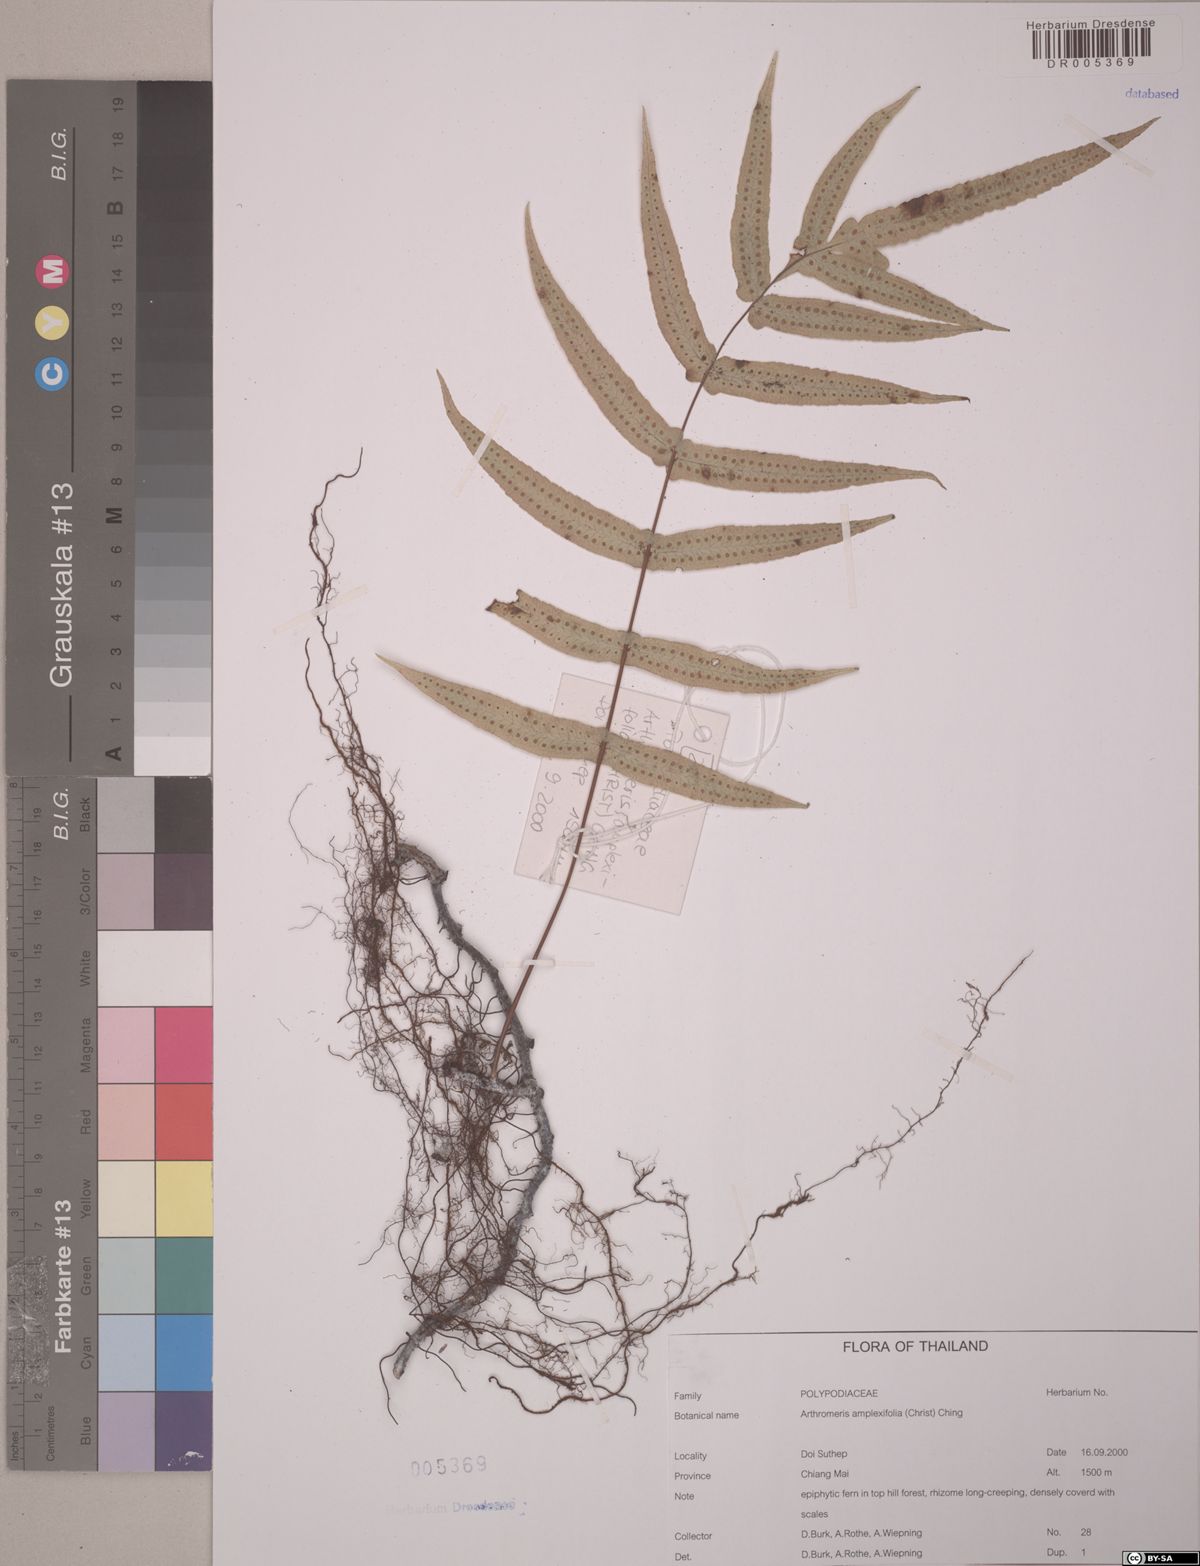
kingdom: Plantae
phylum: Tracheophyta
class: Polypodiopsida
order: Polypodiales
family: Polypodiaceae
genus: Selliguea
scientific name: Selliguea amplexifolia
